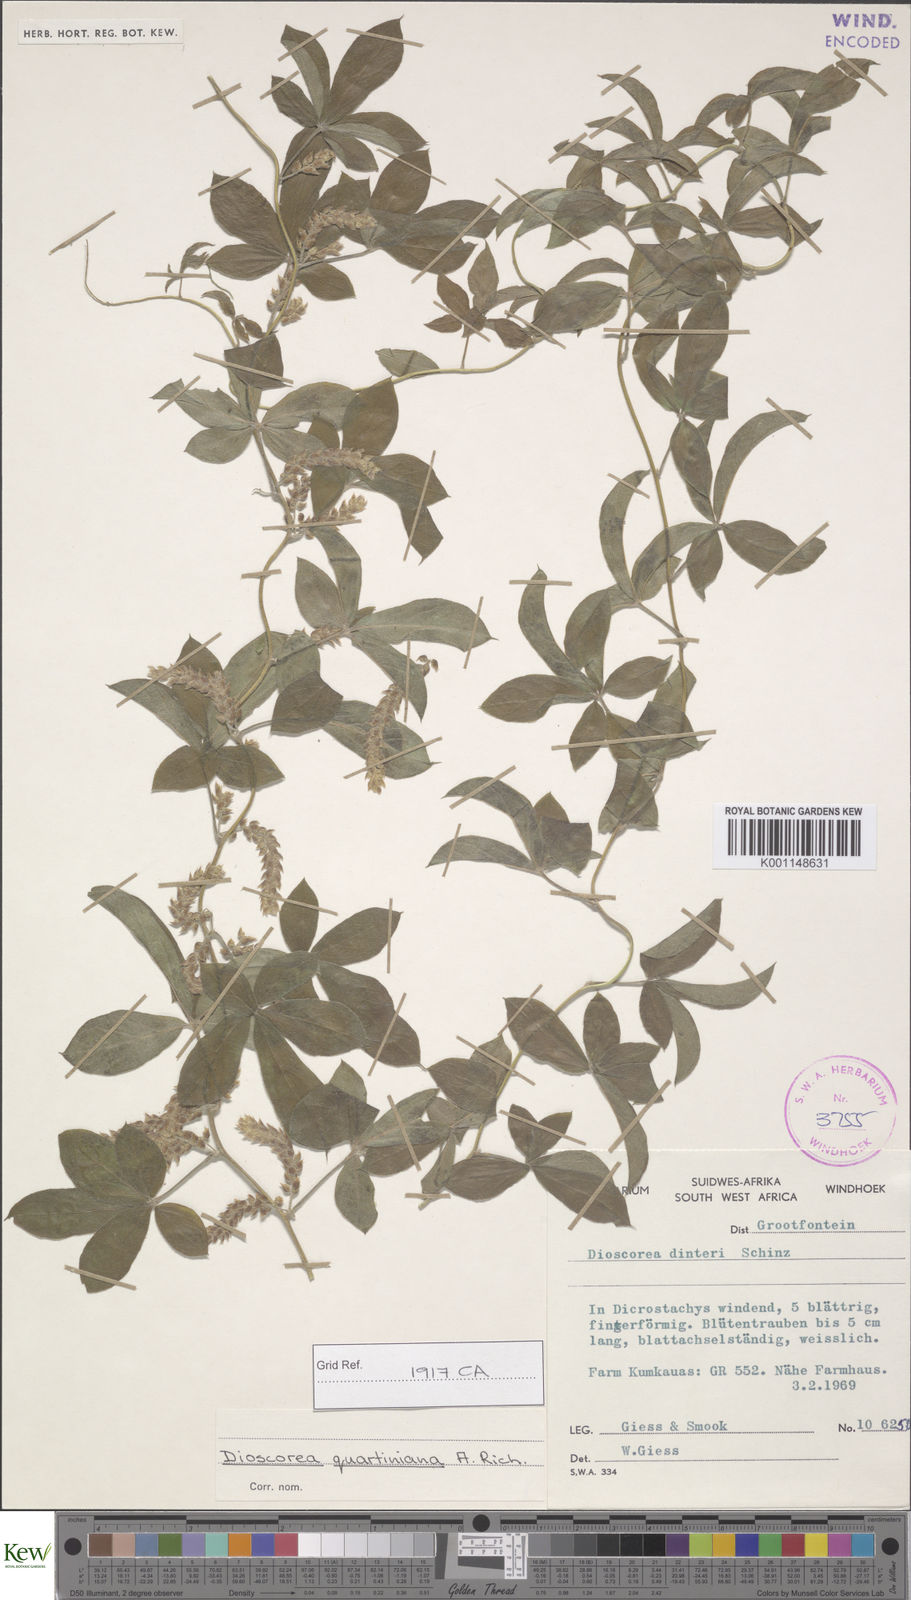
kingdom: Plantae
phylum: Tracheophyta
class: Liliopsida
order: Dioscoreales
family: Dioscoreaceae
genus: Dioscorea
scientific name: Dioscorea quartiniana
